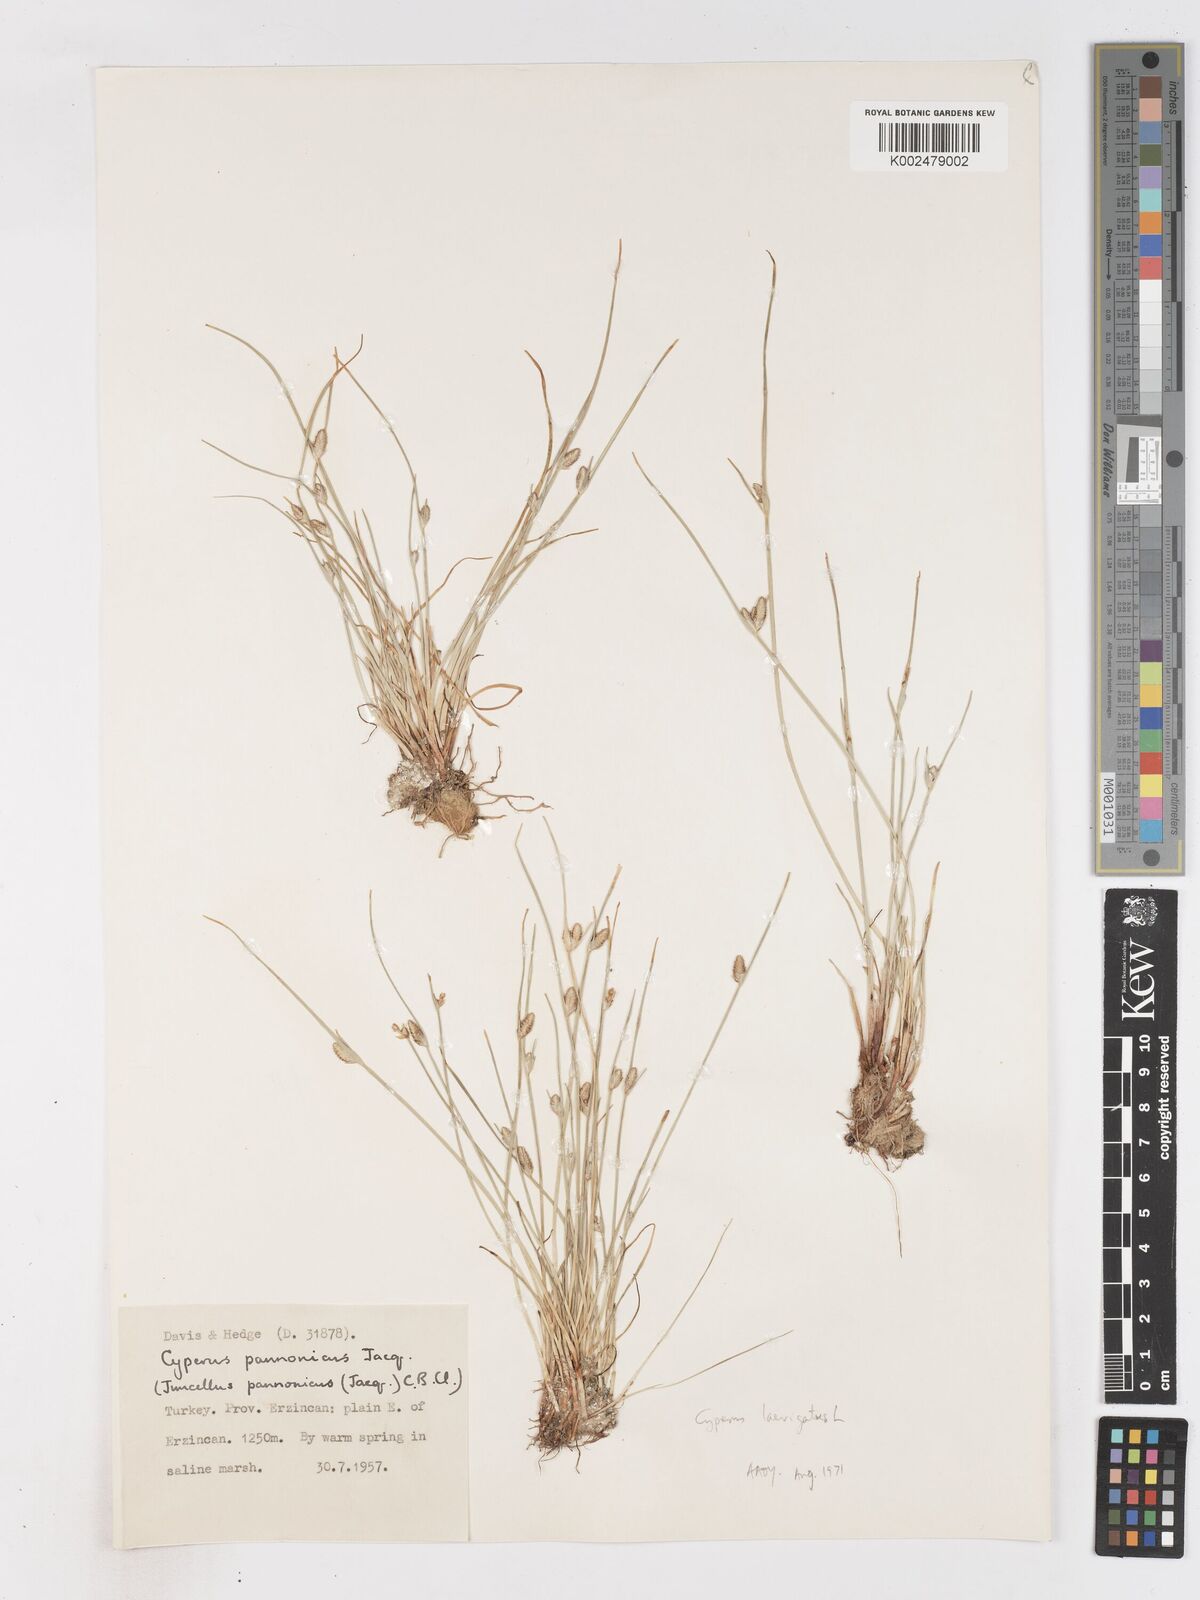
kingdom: Plantae
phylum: Tracheophyta
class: Liliopsida
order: Poales
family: Cyperaceae
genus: Cyperus
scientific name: Cyperus pannonicus
